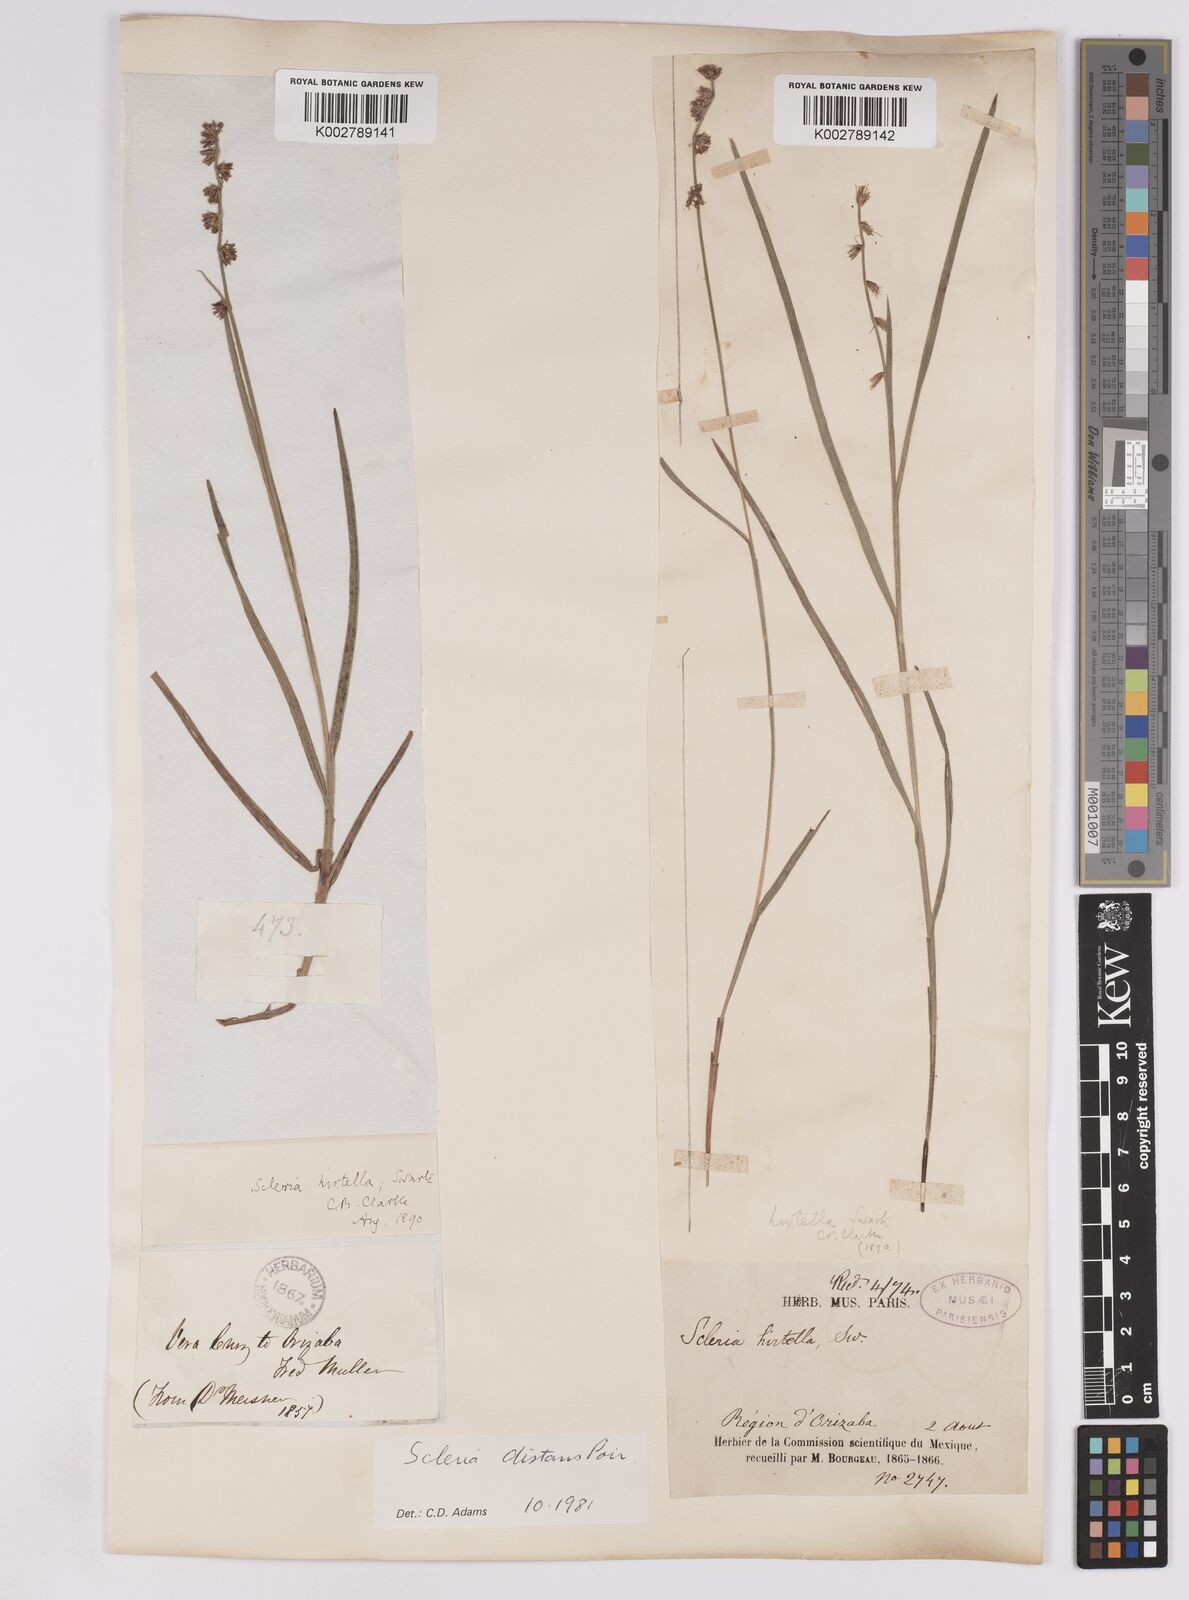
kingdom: Plantae
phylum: Tracheophyta
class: Liliopsida
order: Poales
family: Cyperaceae
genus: Scleria
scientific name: Scleria distans
